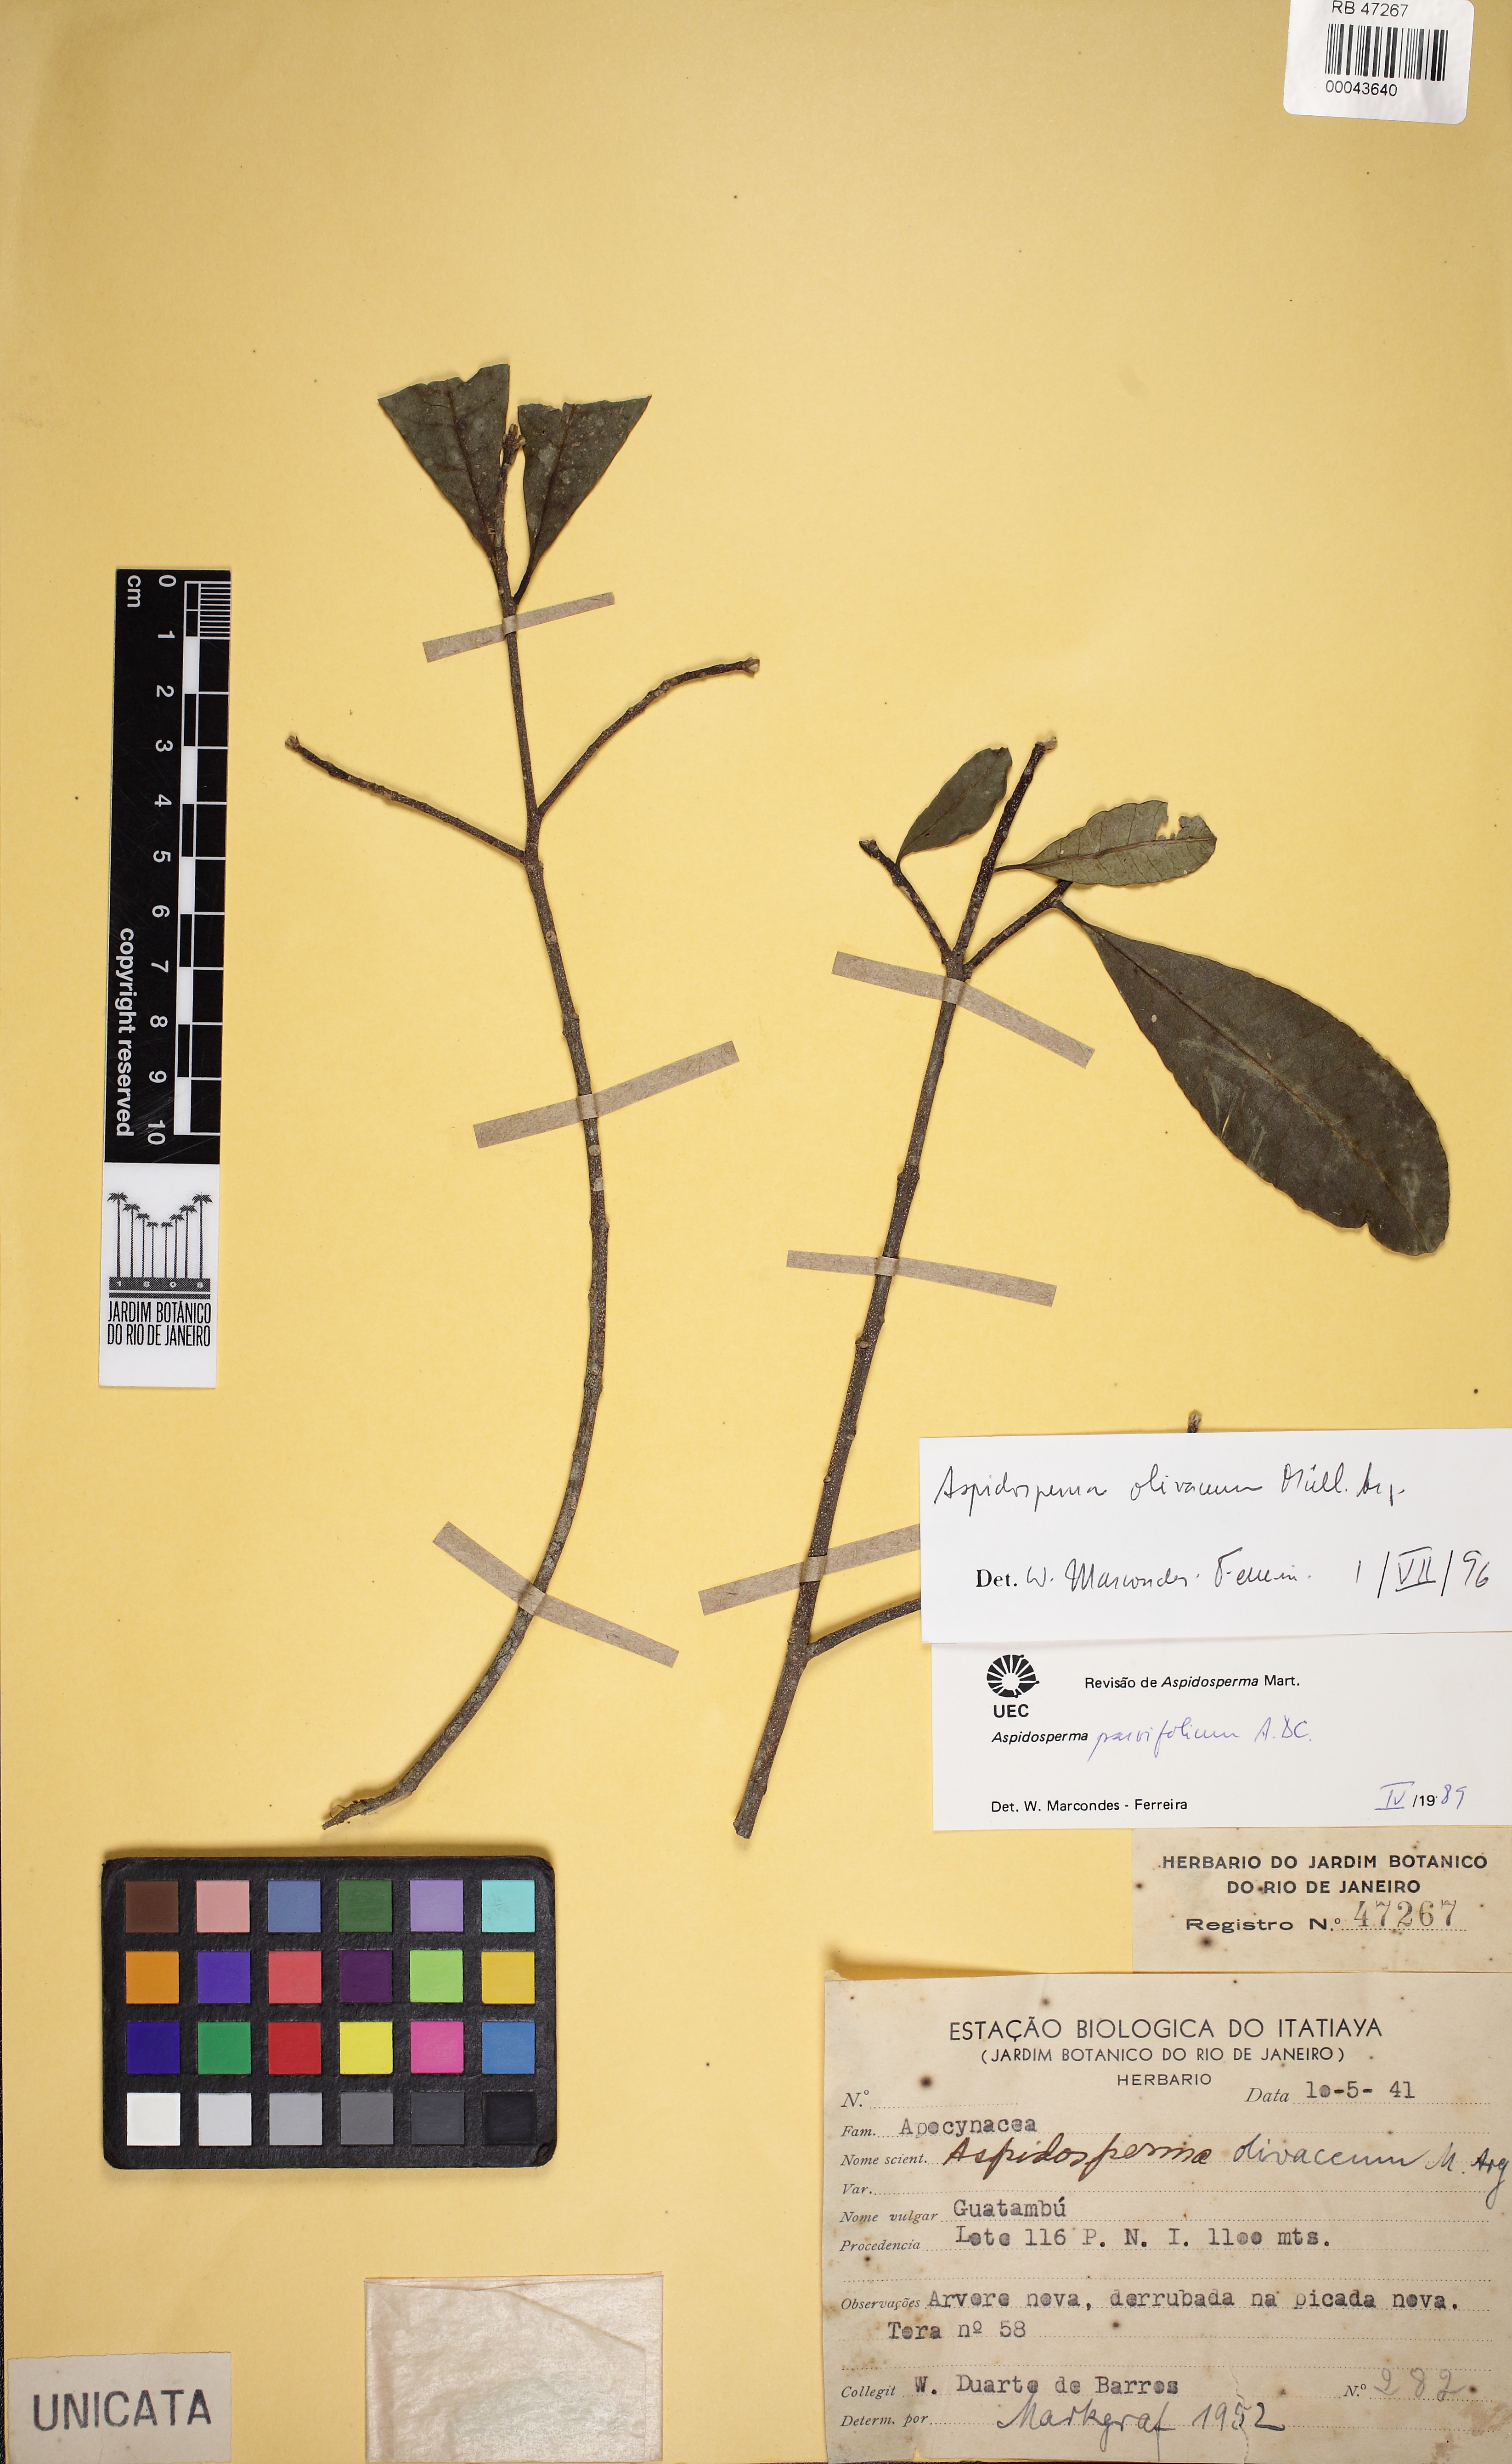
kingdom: Plantae
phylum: Tracheophyta
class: Magnoliopsida
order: Gentianales
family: Apocynaceae
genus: Aspidosperma
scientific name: Aspidosperma olivaceum
